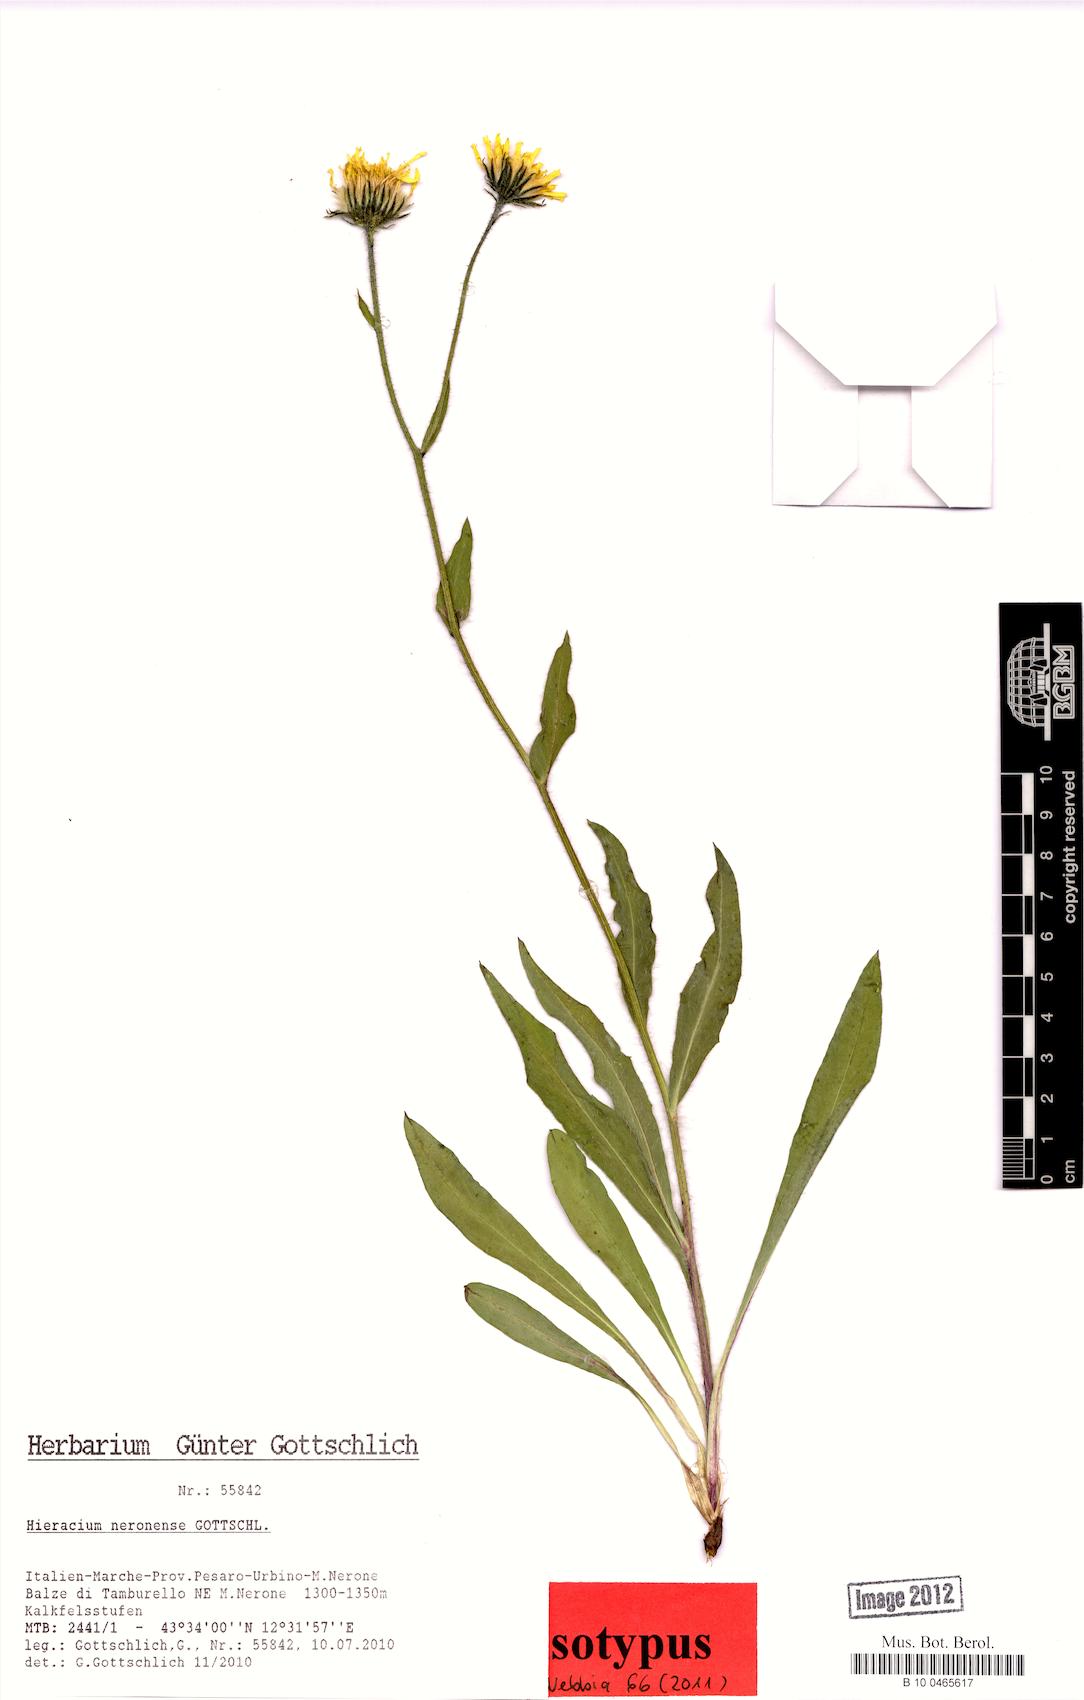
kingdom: Plantae
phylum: Tracheophyta
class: Magnoliopsida
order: Asterales
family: Asteraceae
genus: Hieracium
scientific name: Hieracium neronense
